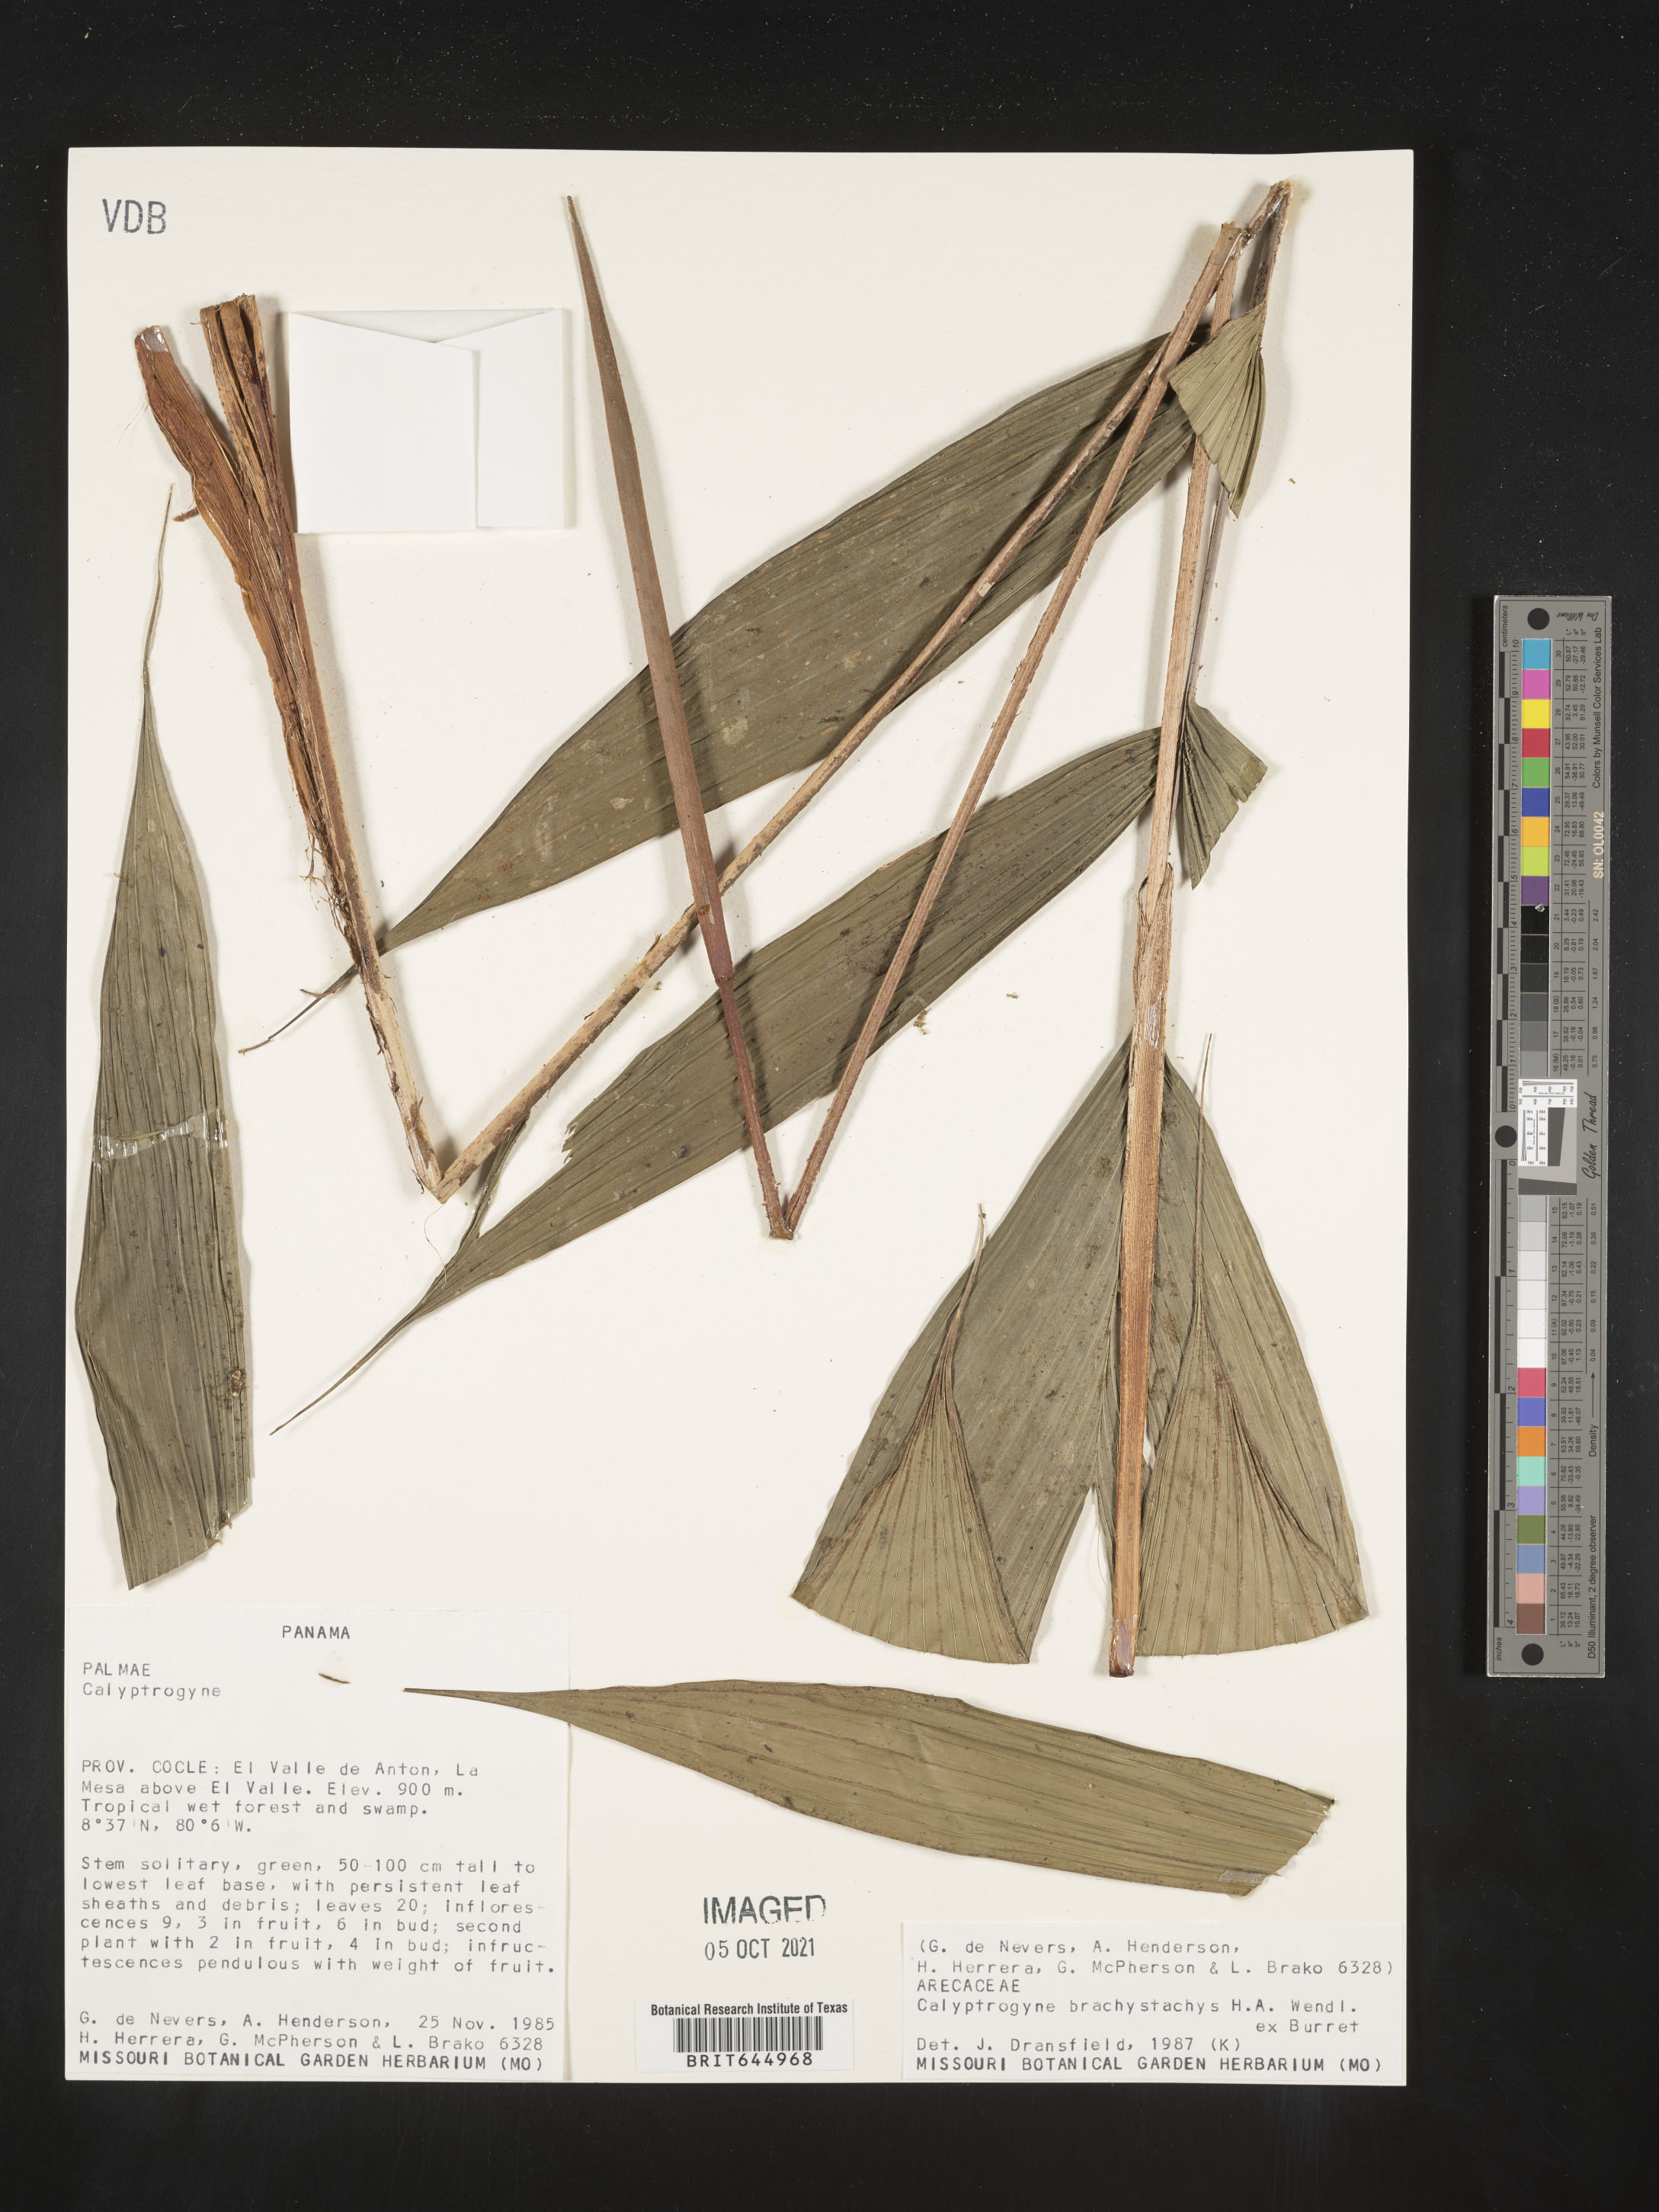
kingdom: Plantae
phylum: Tracheophyta
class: Liliopsida
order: Arecales
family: Arecaceae
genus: Calyptrogyne
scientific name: Calyptrogyne brachystachys
